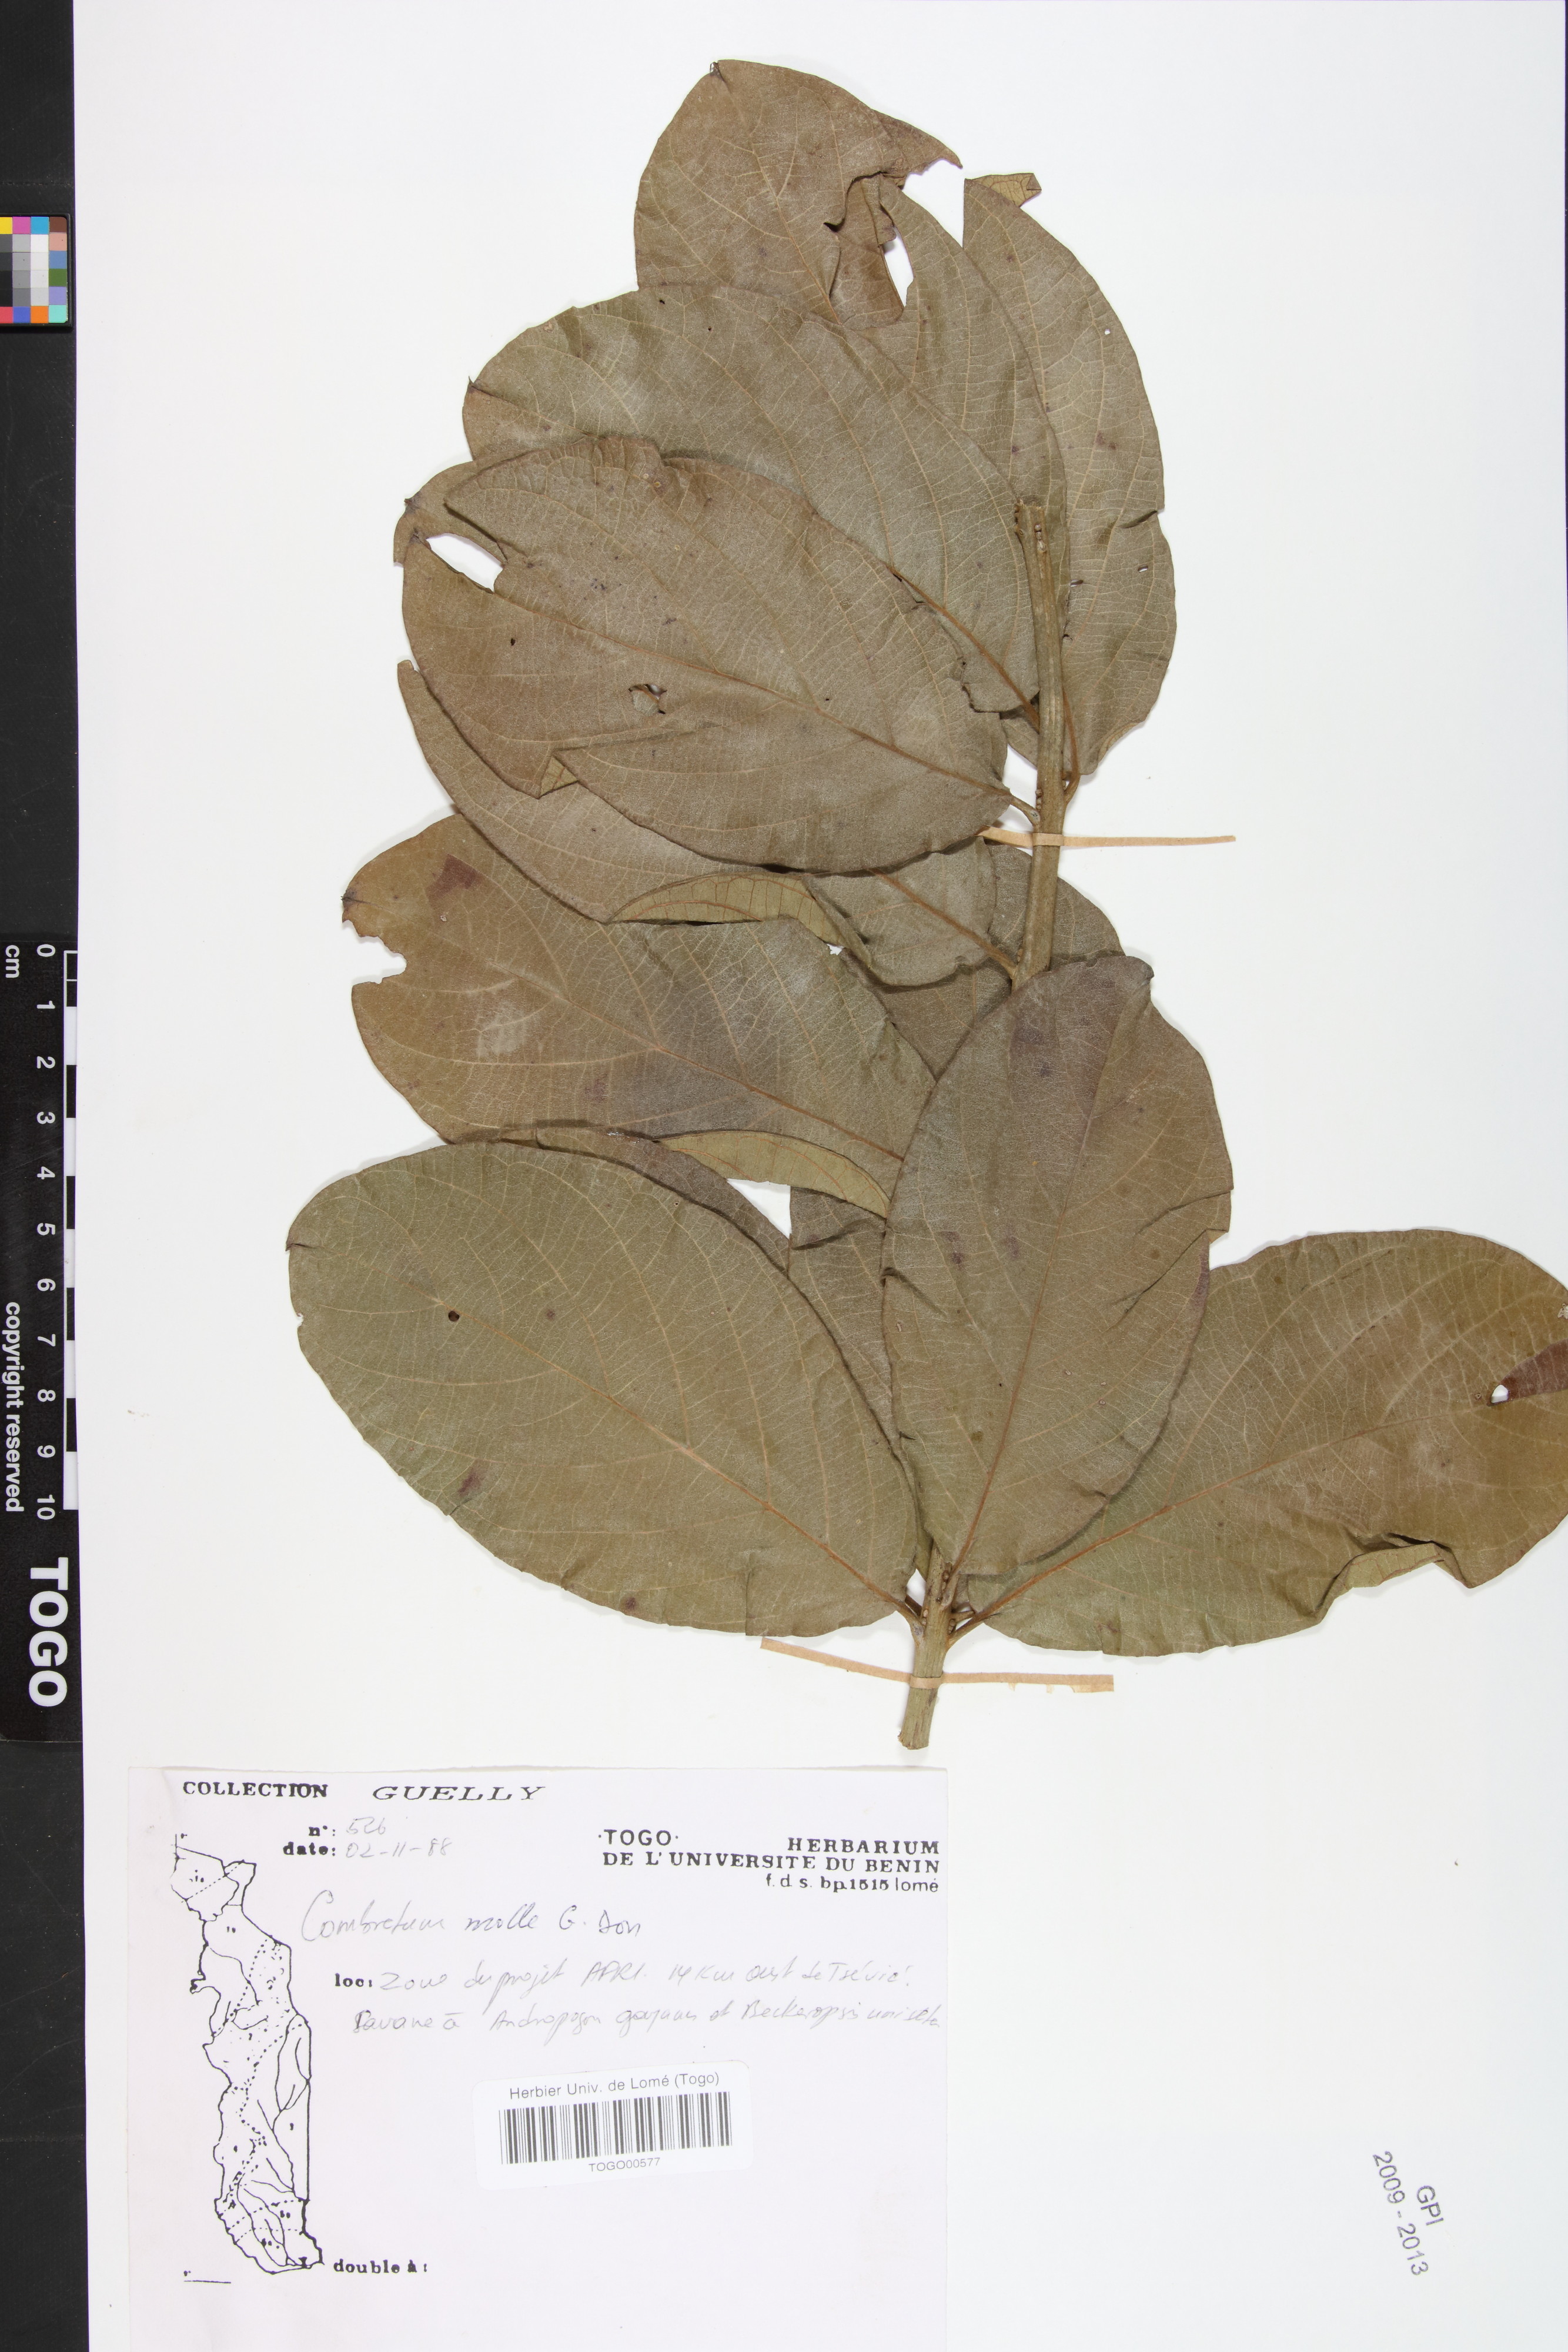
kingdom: Plantae
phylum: Tracheophyta
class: Magnoliopsida
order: Myrtales
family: Combretaceae
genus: Combretum
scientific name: Combretum molle
